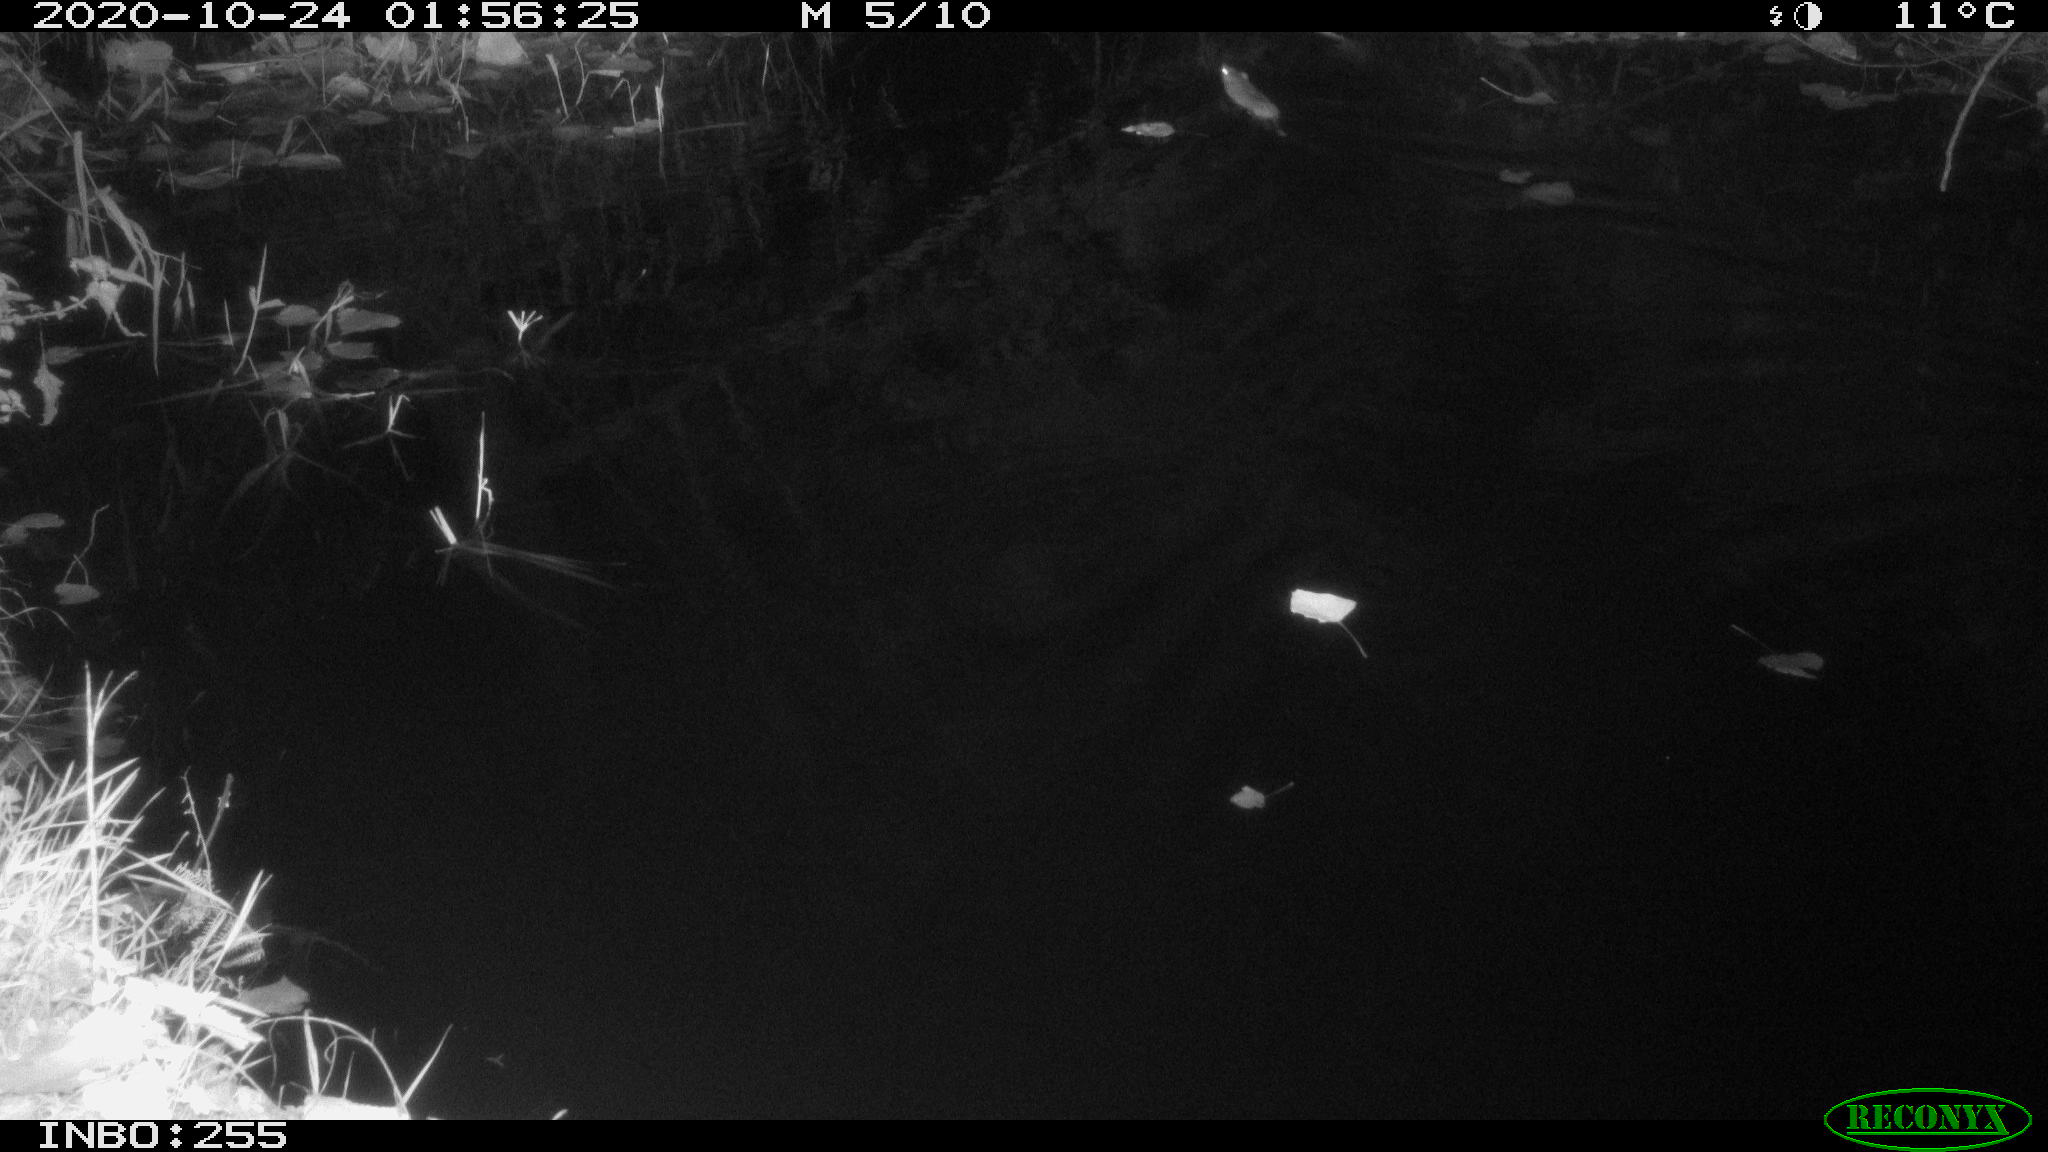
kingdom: Animalia
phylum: Chordata
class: Mammalia
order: Rodentia
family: Muridae
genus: Rattus
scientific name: Rattus norvegicus
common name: Brown rat
